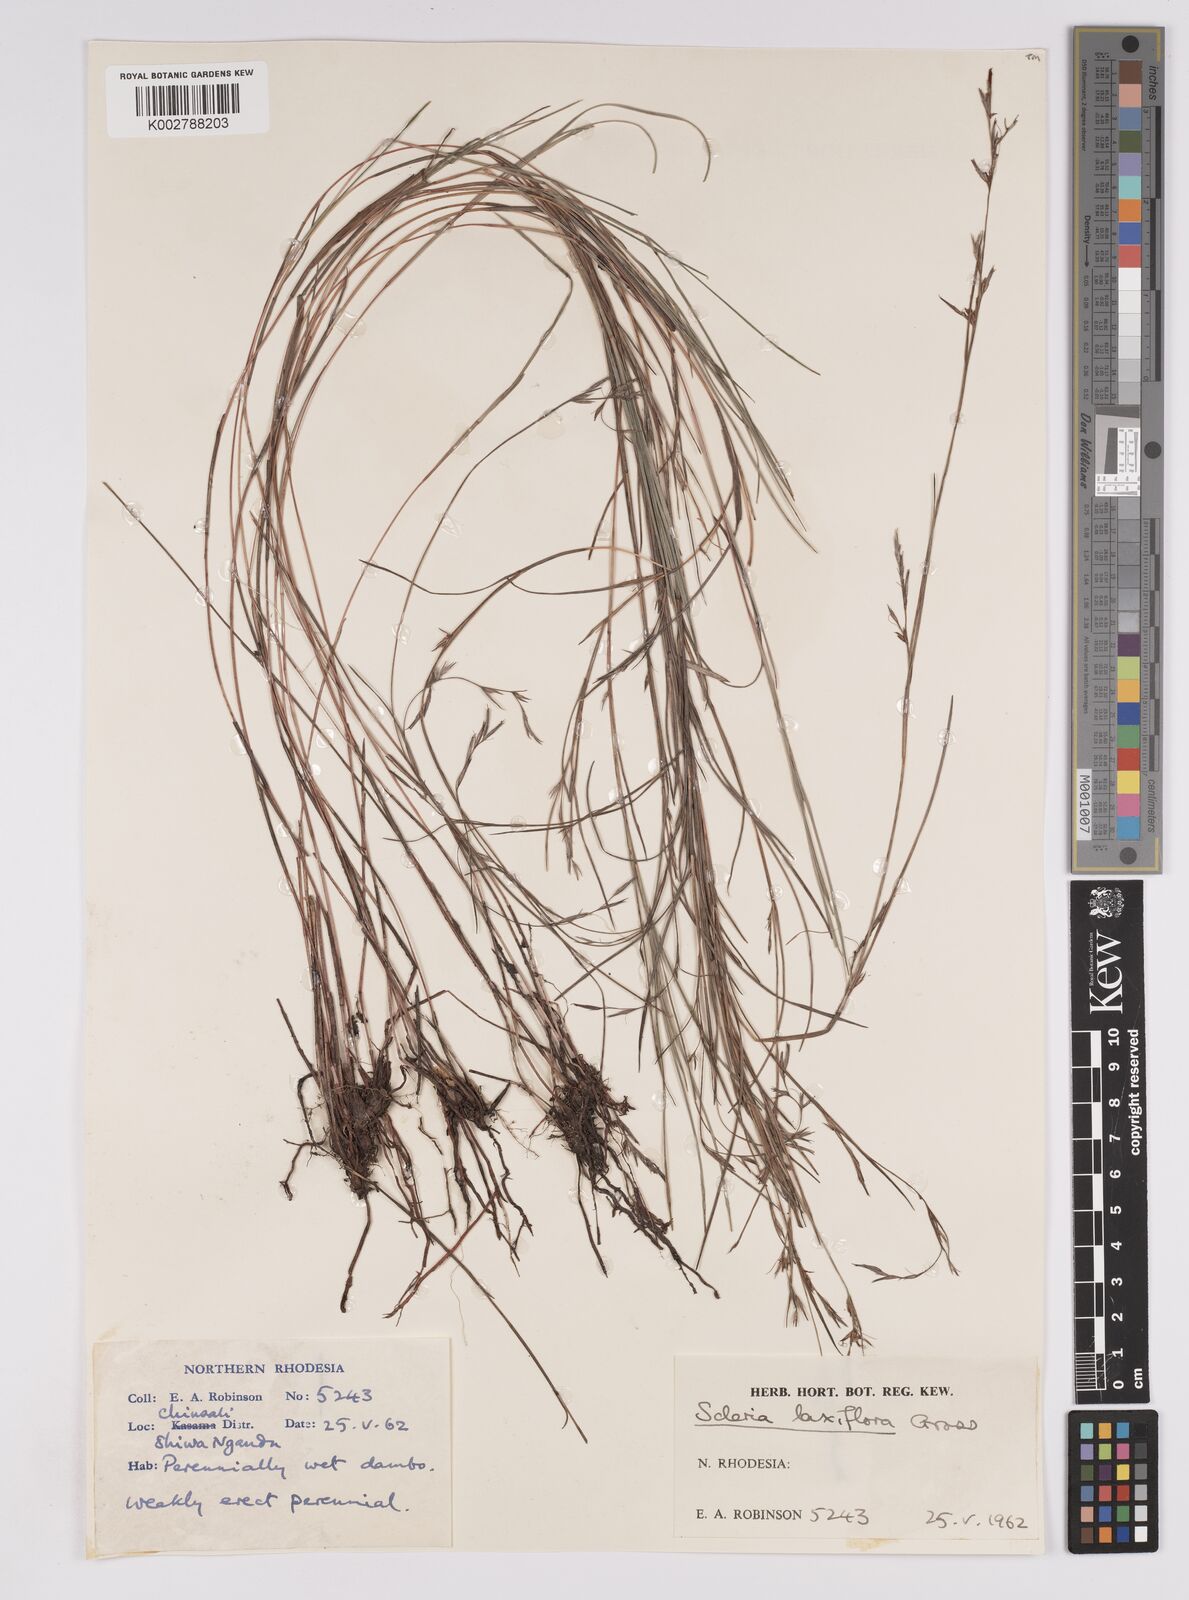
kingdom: Plantae
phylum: Tracheophyta
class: Liliopsida
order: Poales
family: Cyperaceae
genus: Scleria
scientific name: Scleria laxiflora
